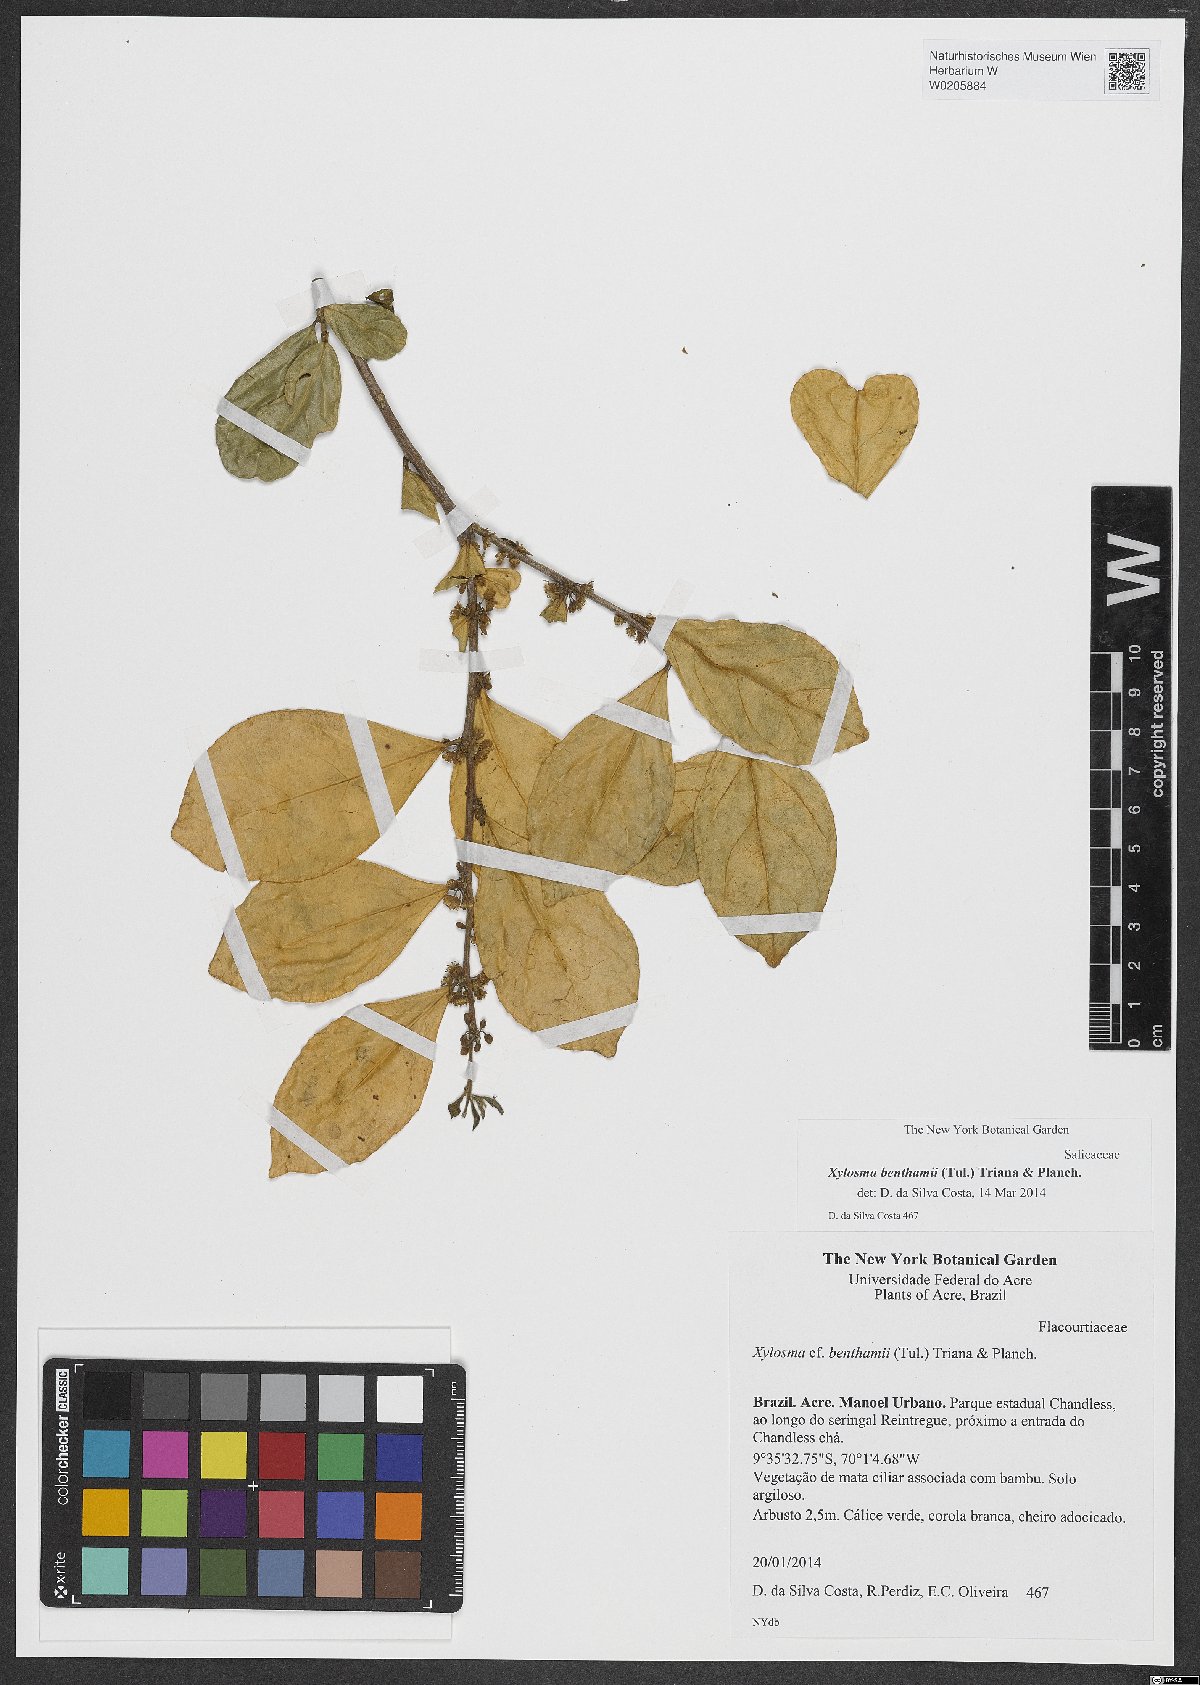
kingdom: Plantae
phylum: Tracheophyta
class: Magnoliopsida
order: Malpighiales
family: Salicaceae
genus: Xylosma
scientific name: Xylosma benthamii
